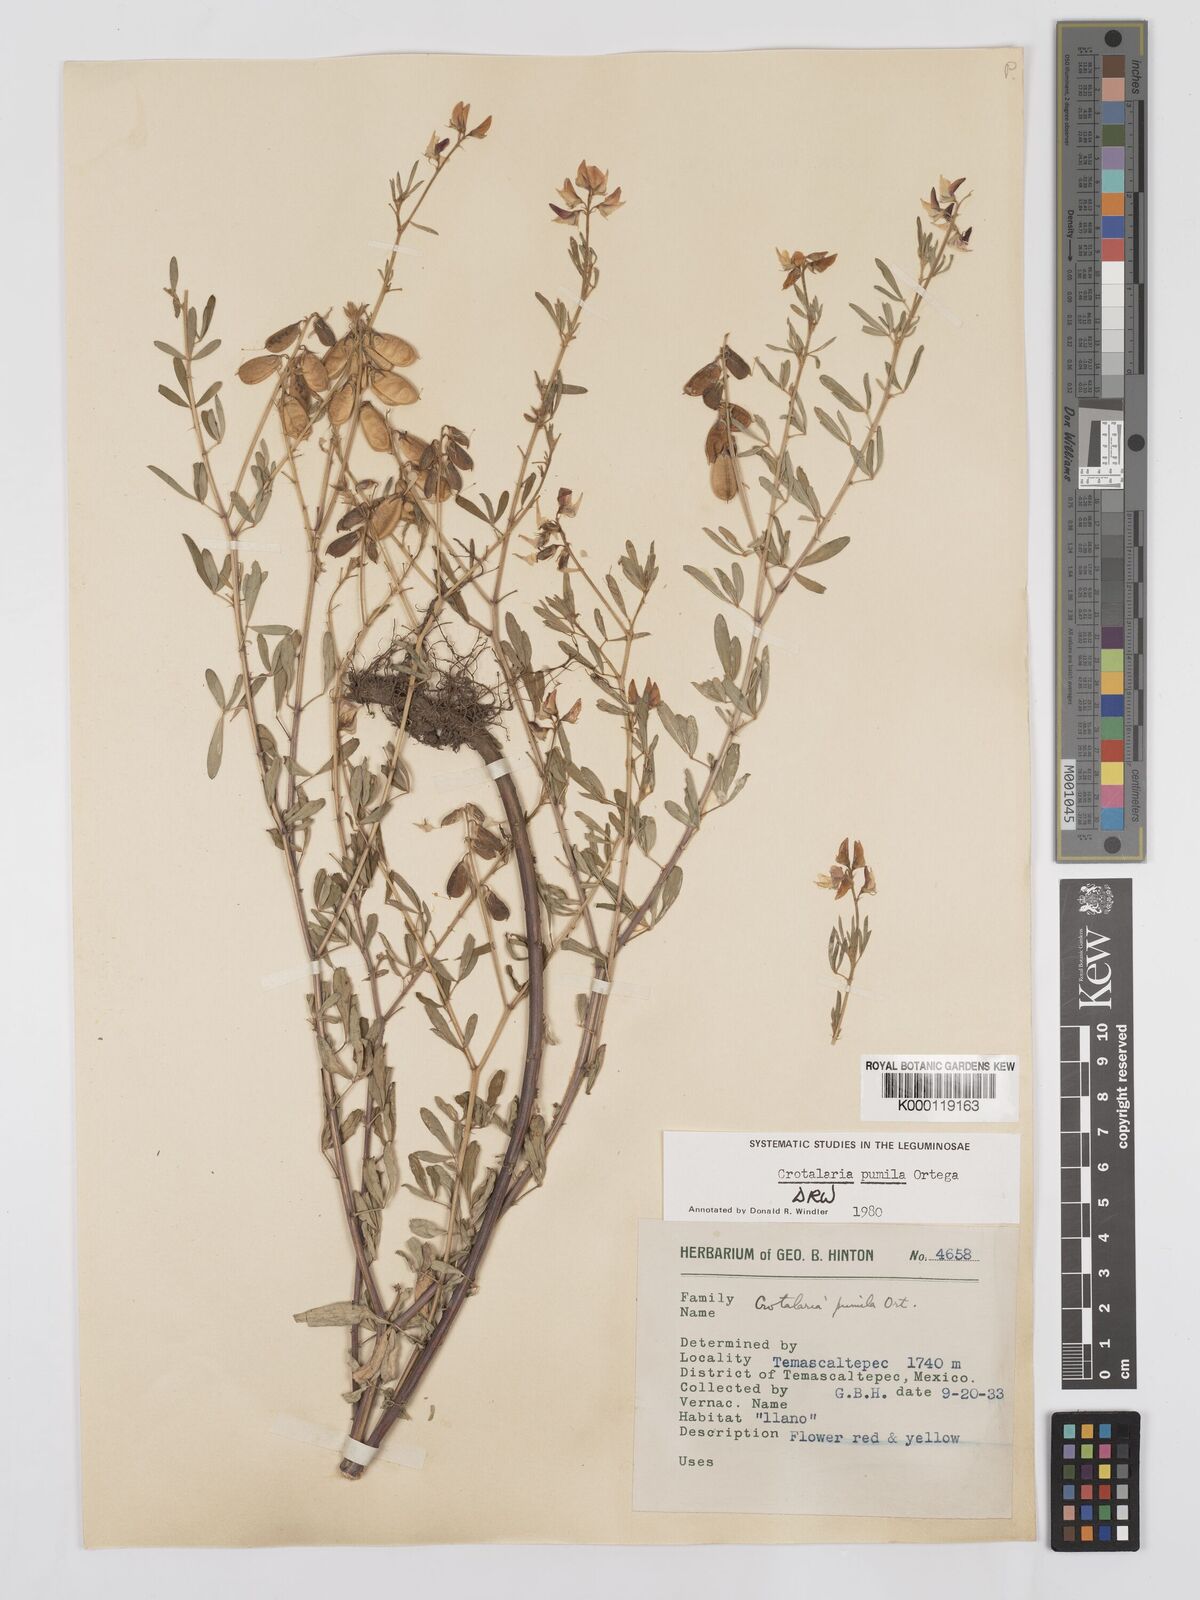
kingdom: Plantae
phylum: Tracheophyta
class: Magnoliopsida
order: Fabales
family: Fabaceae
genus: Crotalaria
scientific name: Crotalaria pumila
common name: Low rattlebox
